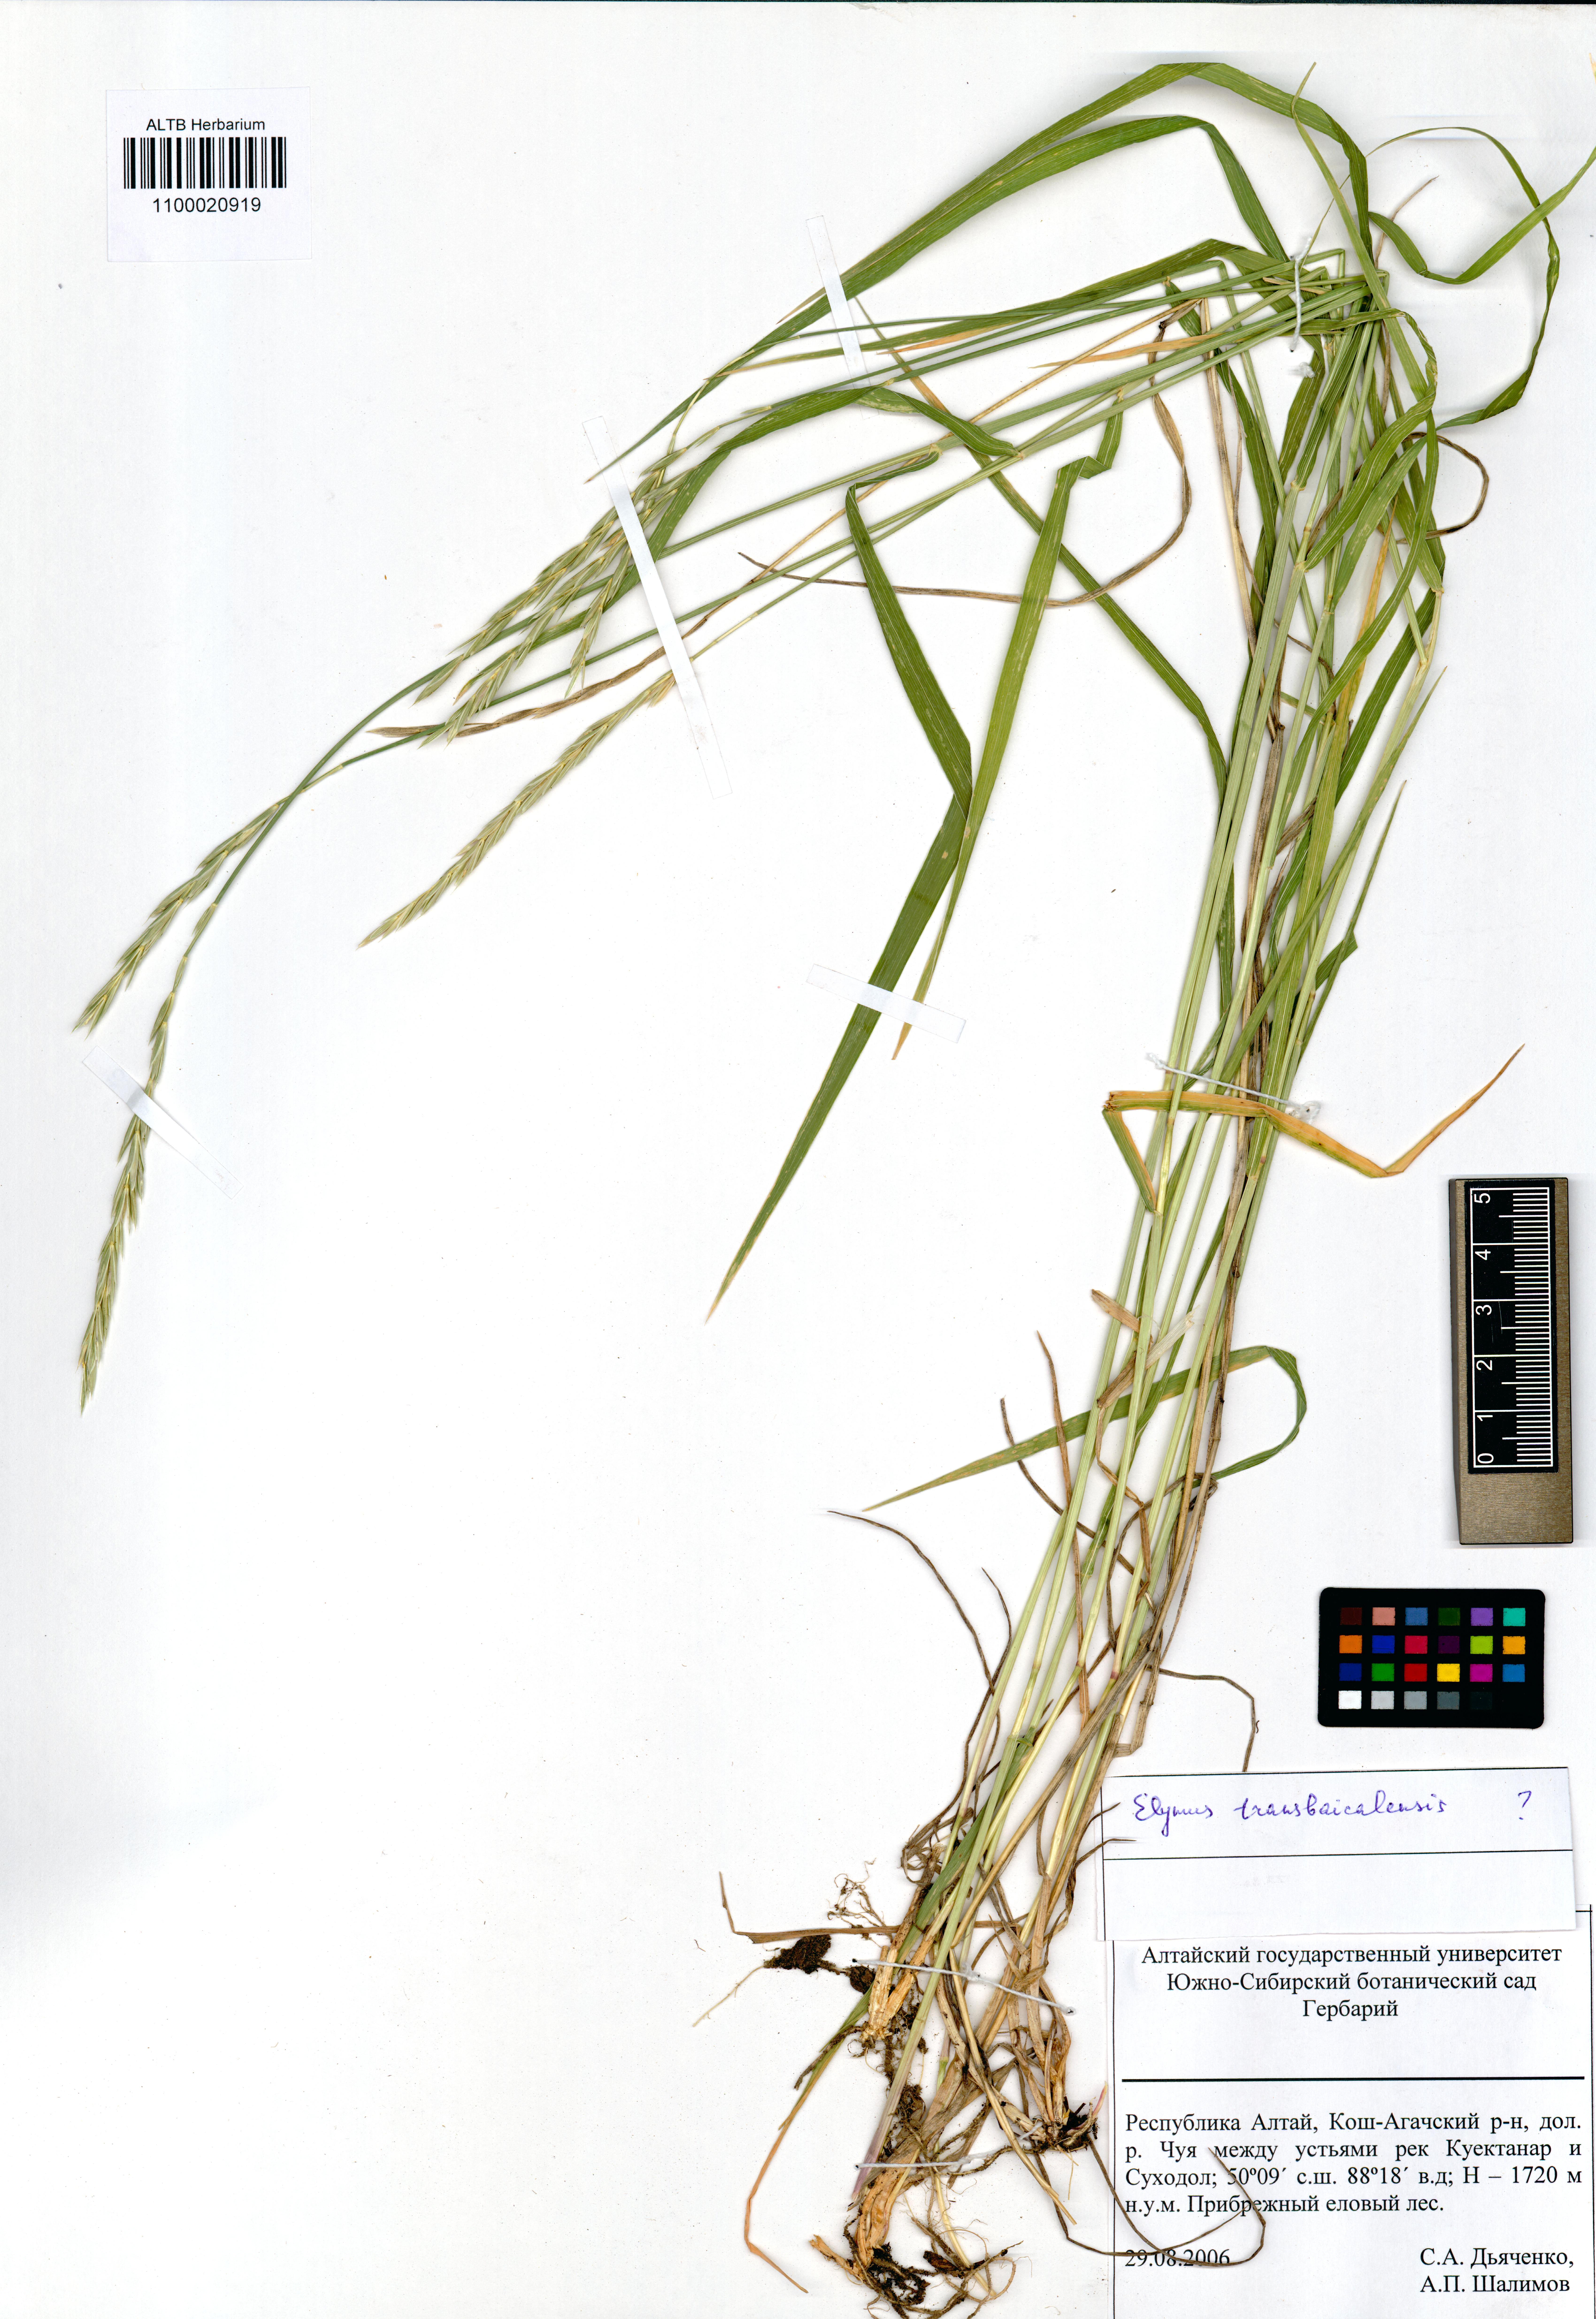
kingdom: Plantae
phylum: Tracheophyta
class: Liliopsida
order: Poales
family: Poaceae
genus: Elymus
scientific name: Elymus mutabilis
